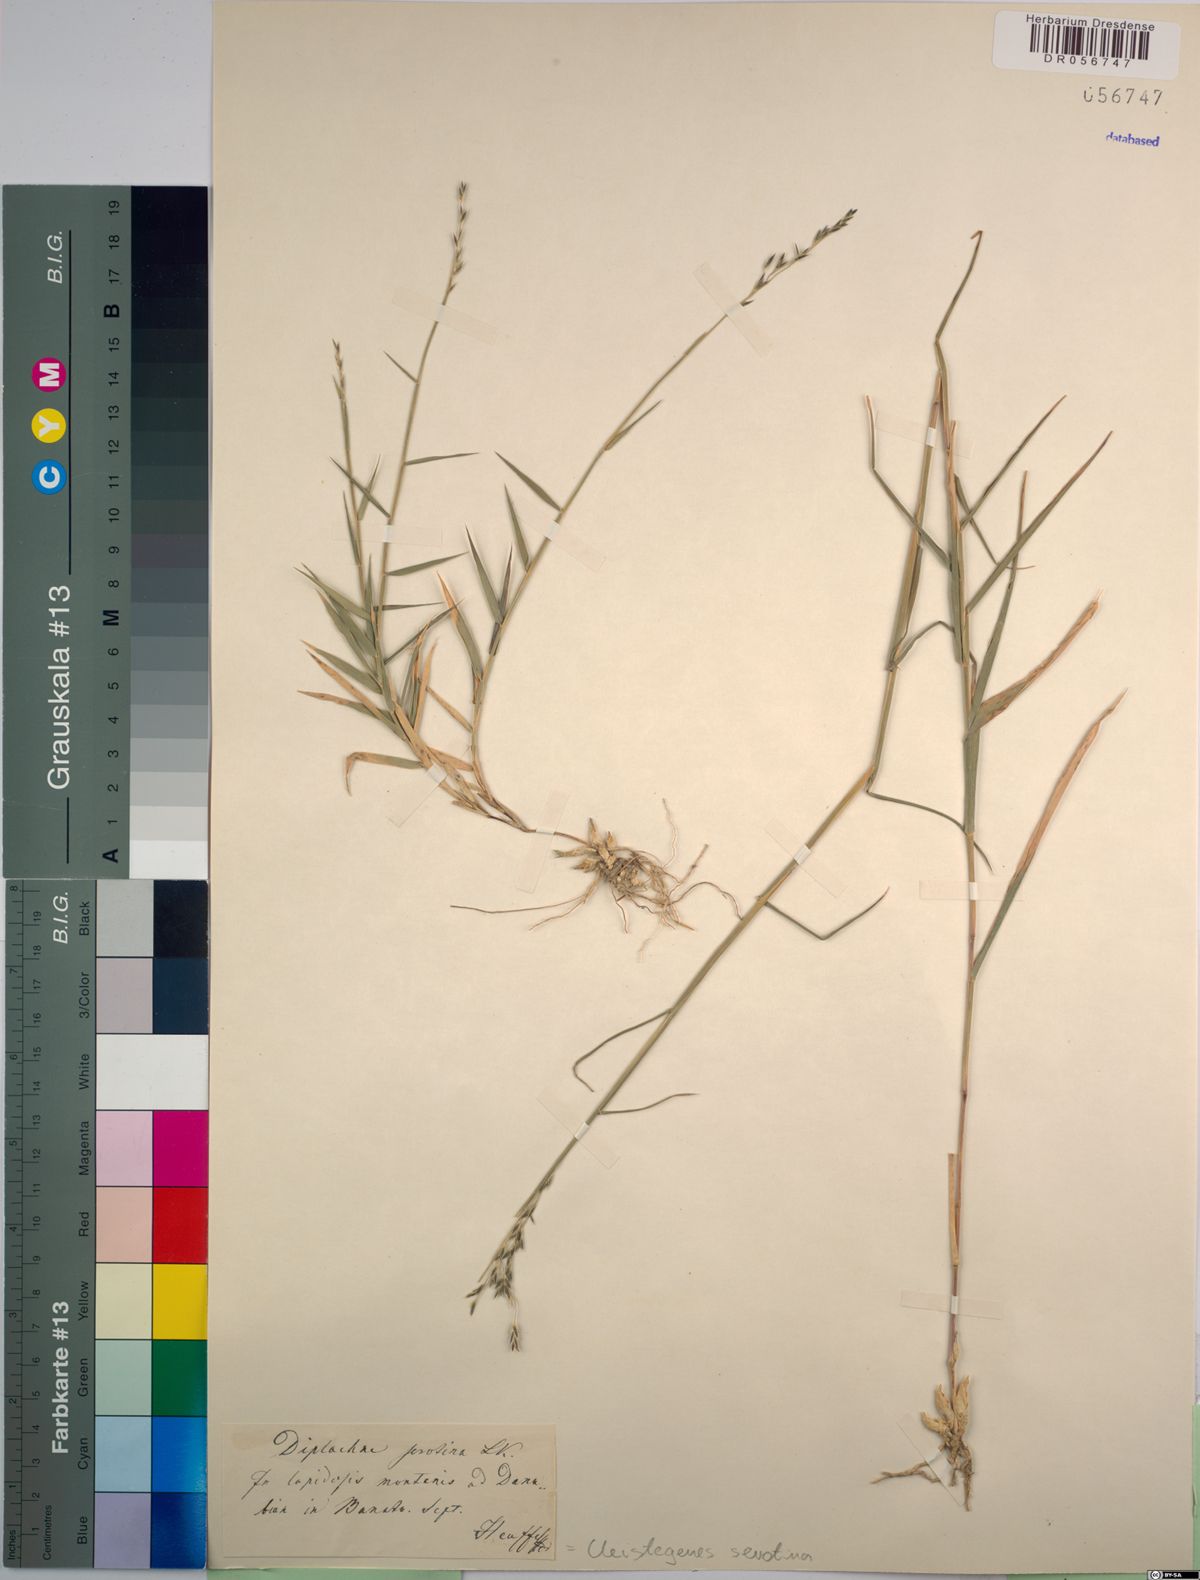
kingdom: Plantae
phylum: Tracheophyta
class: Liliopsida
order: Poales
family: Poaceae
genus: Cleistogenes
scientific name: Cleistogenes serotina
